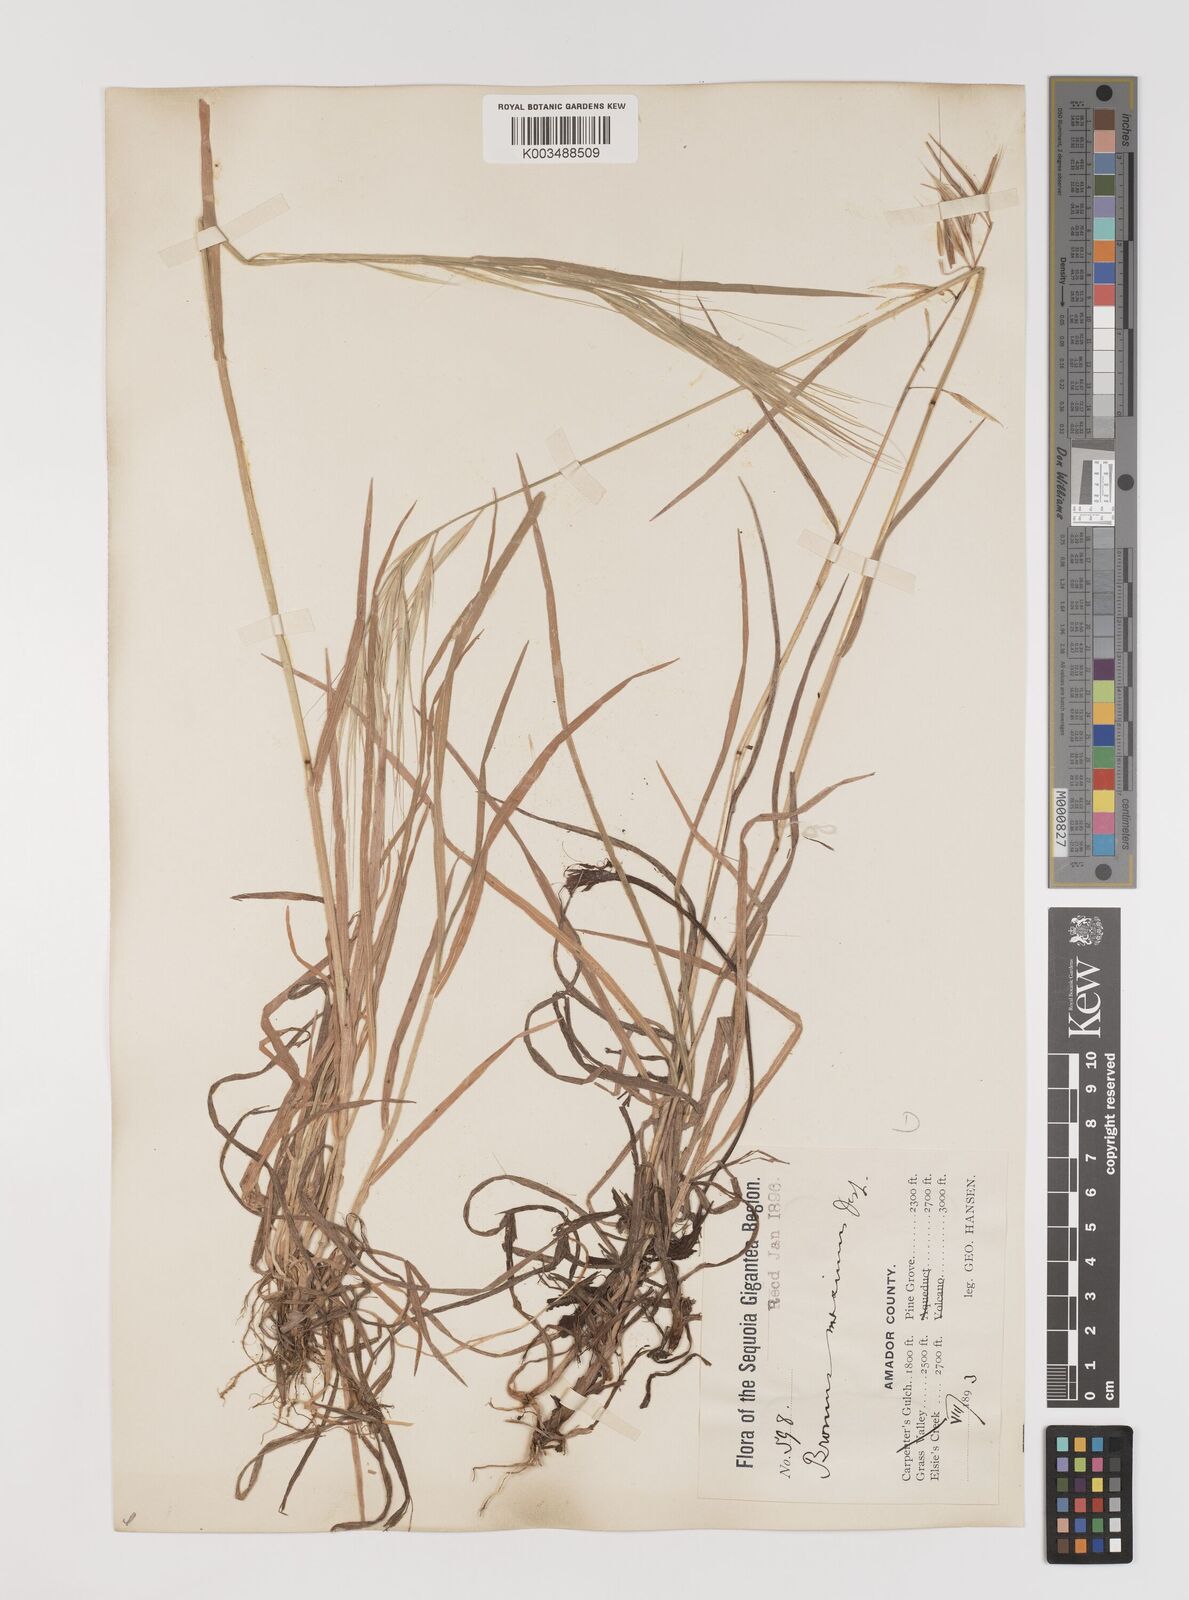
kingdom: Plantae
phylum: Tracheophyta
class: Liliopsida
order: Poales
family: Poaceae
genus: Bromus
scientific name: Bromus diandrus
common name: Ripgut brome
